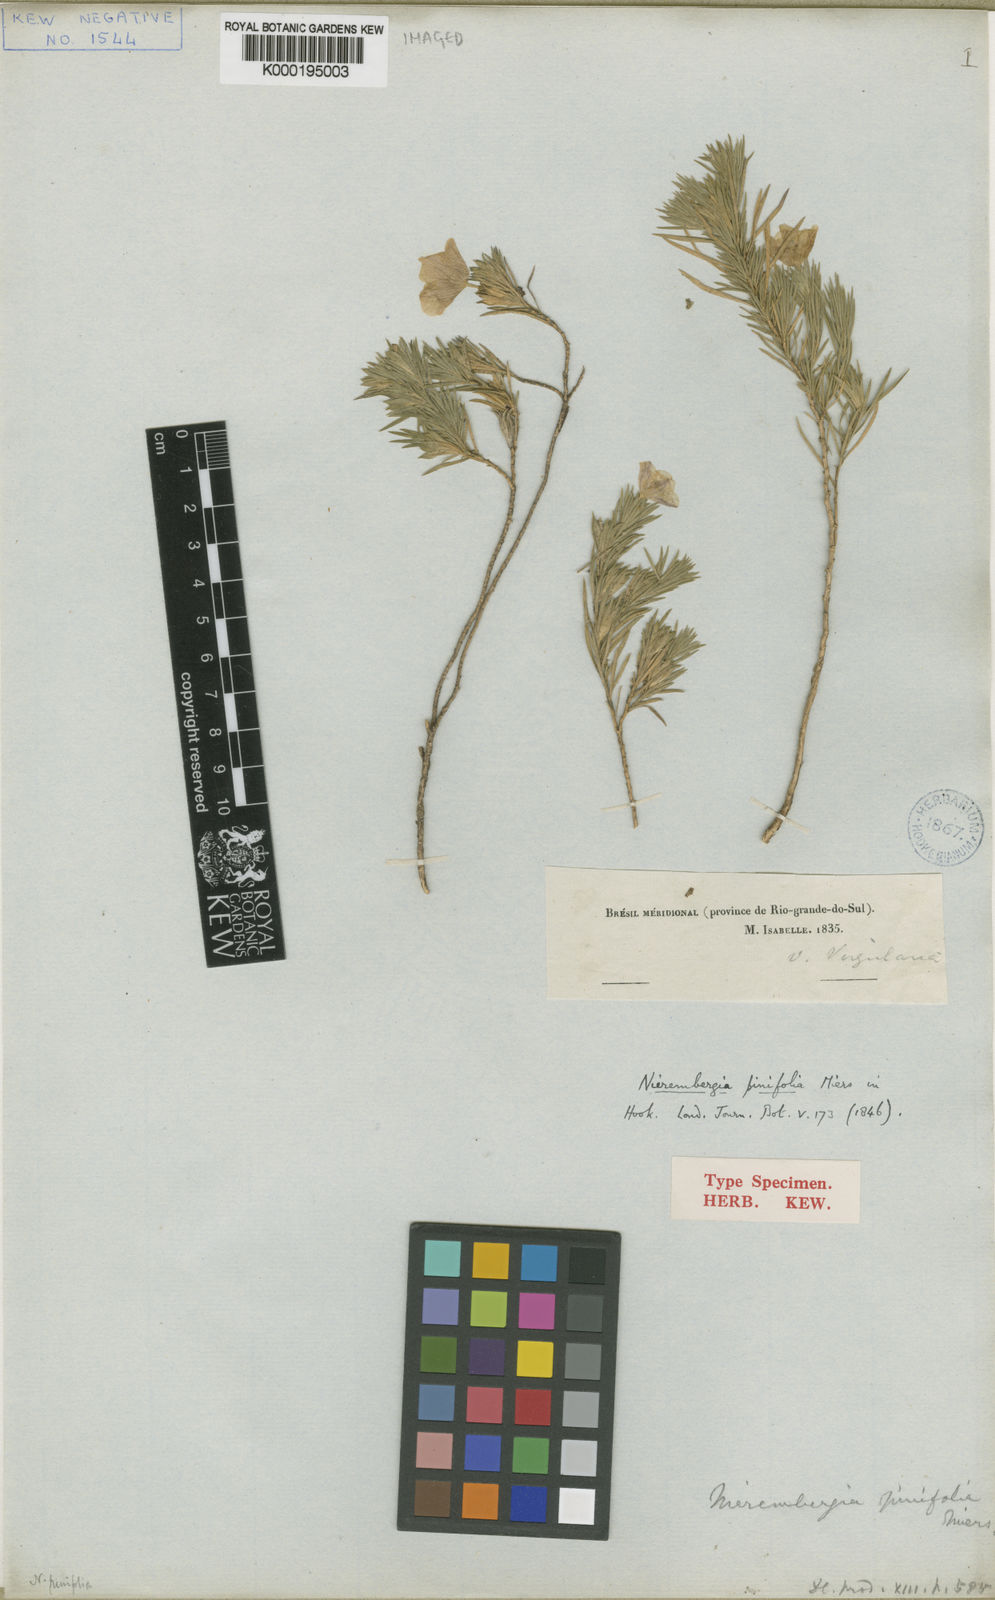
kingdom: Plantae
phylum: Tracheophyta
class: Magnoliopsida
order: Solanales
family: Solanaceae
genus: Nierembergia
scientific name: Nierembergia pinifolia
